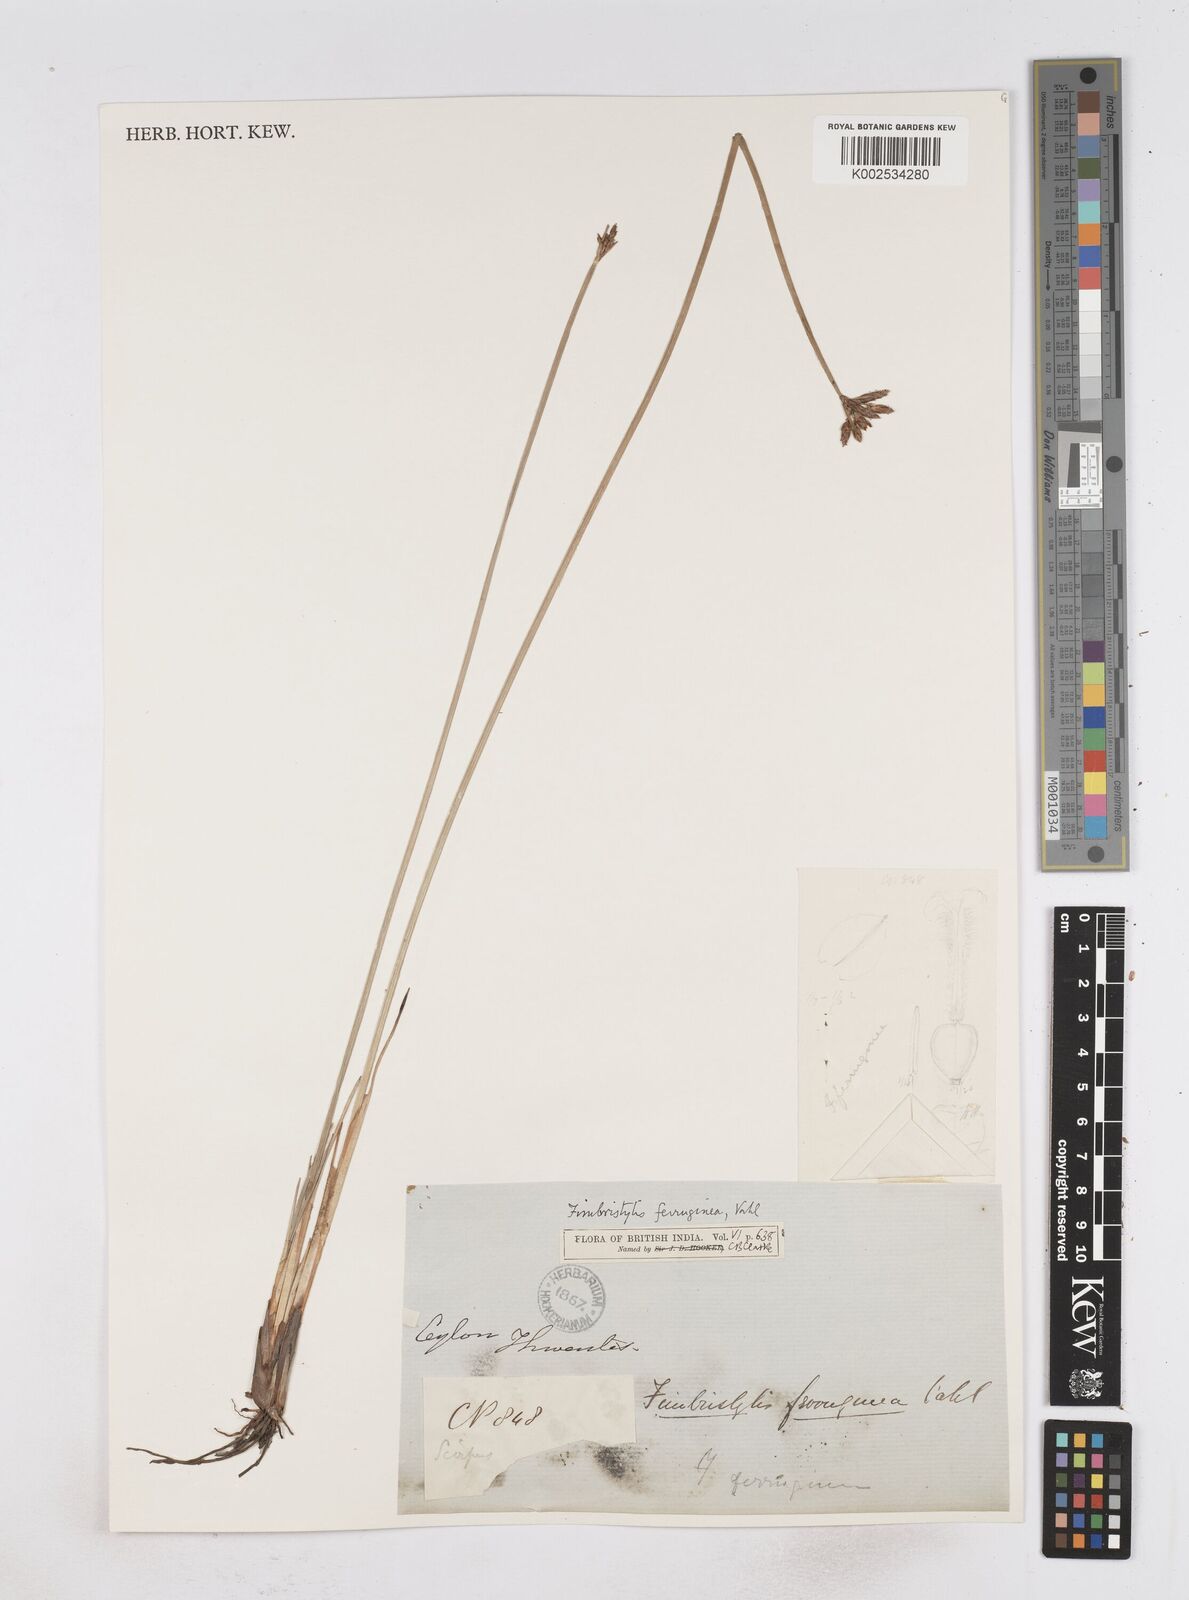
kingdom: Plantae
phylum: Tracheophyta
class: Liliopsida
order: Poales
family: Cyperaceae
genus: Fimbristylis
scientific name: Fimbristylis ferruginea
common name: West indian fimbry
